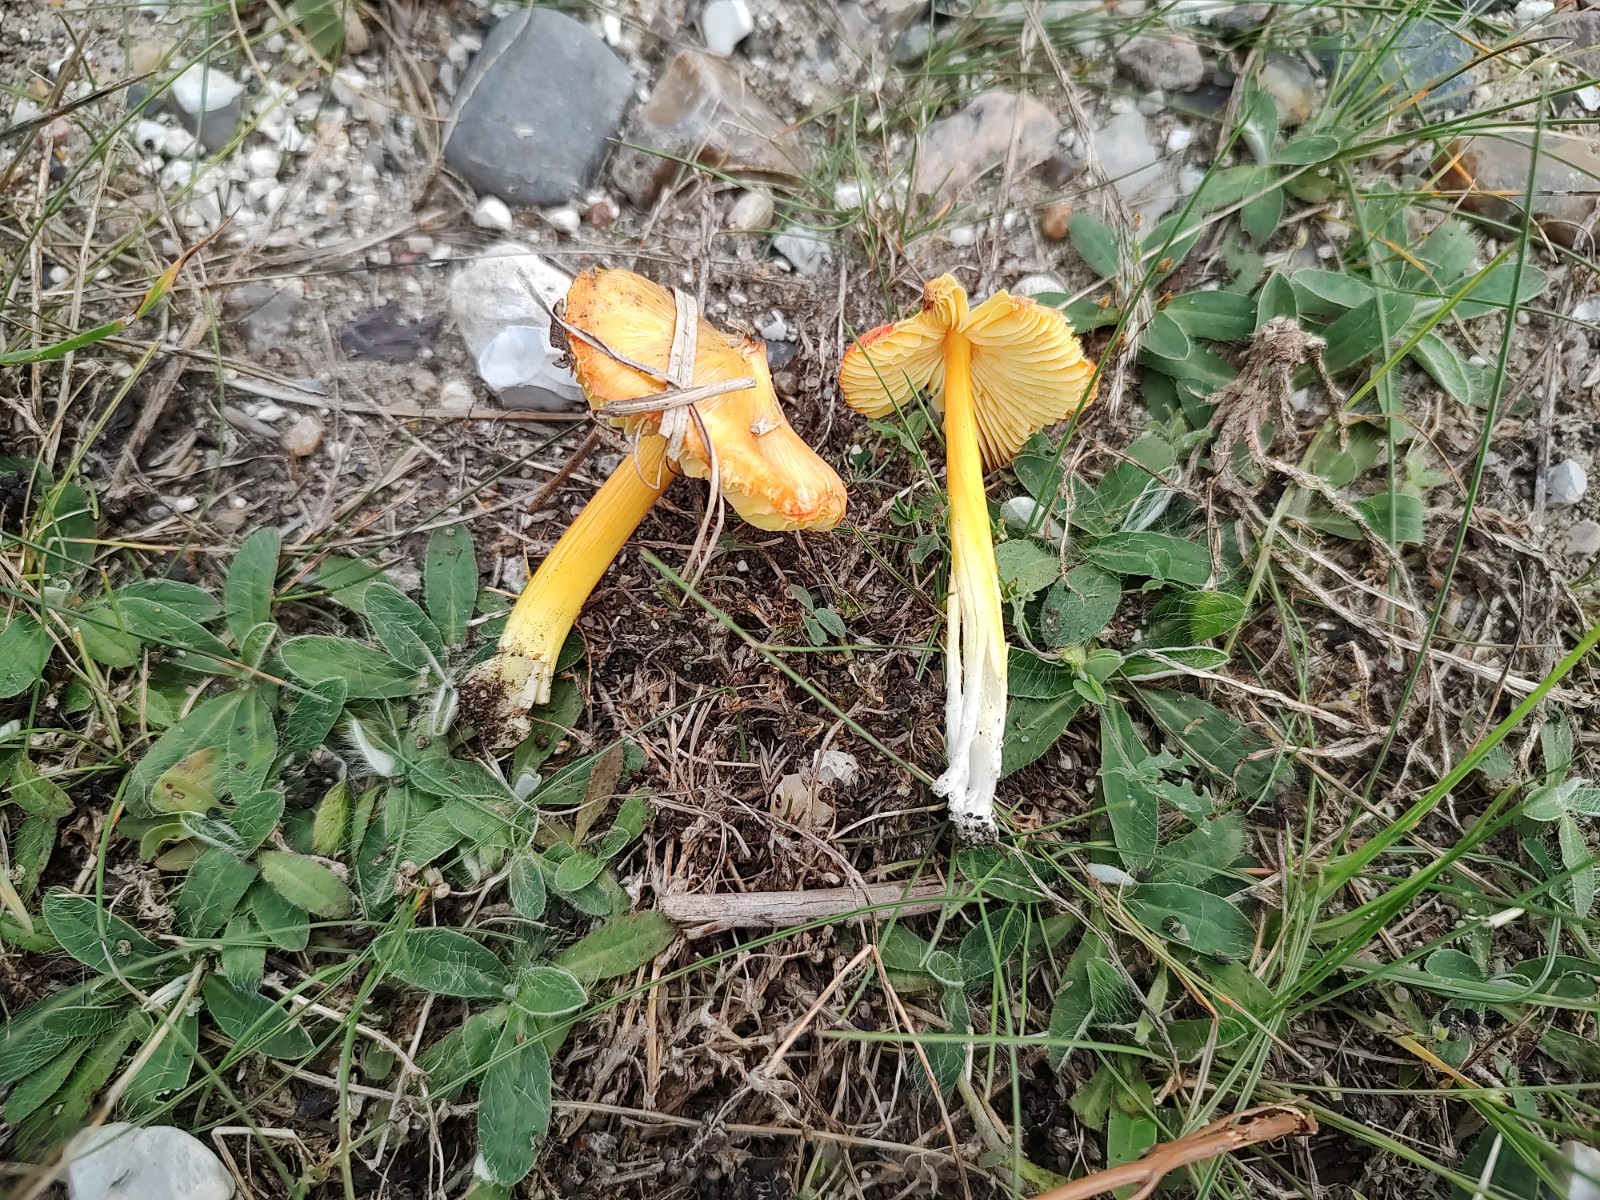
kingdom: Fungi
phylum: Basidiomycota
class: Agaricomycetes
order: Agaricales
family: Hygrophoraceae
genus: Hygrocybe
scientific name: Hygrocybe acutoconica
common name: spidspuklet vokshat
